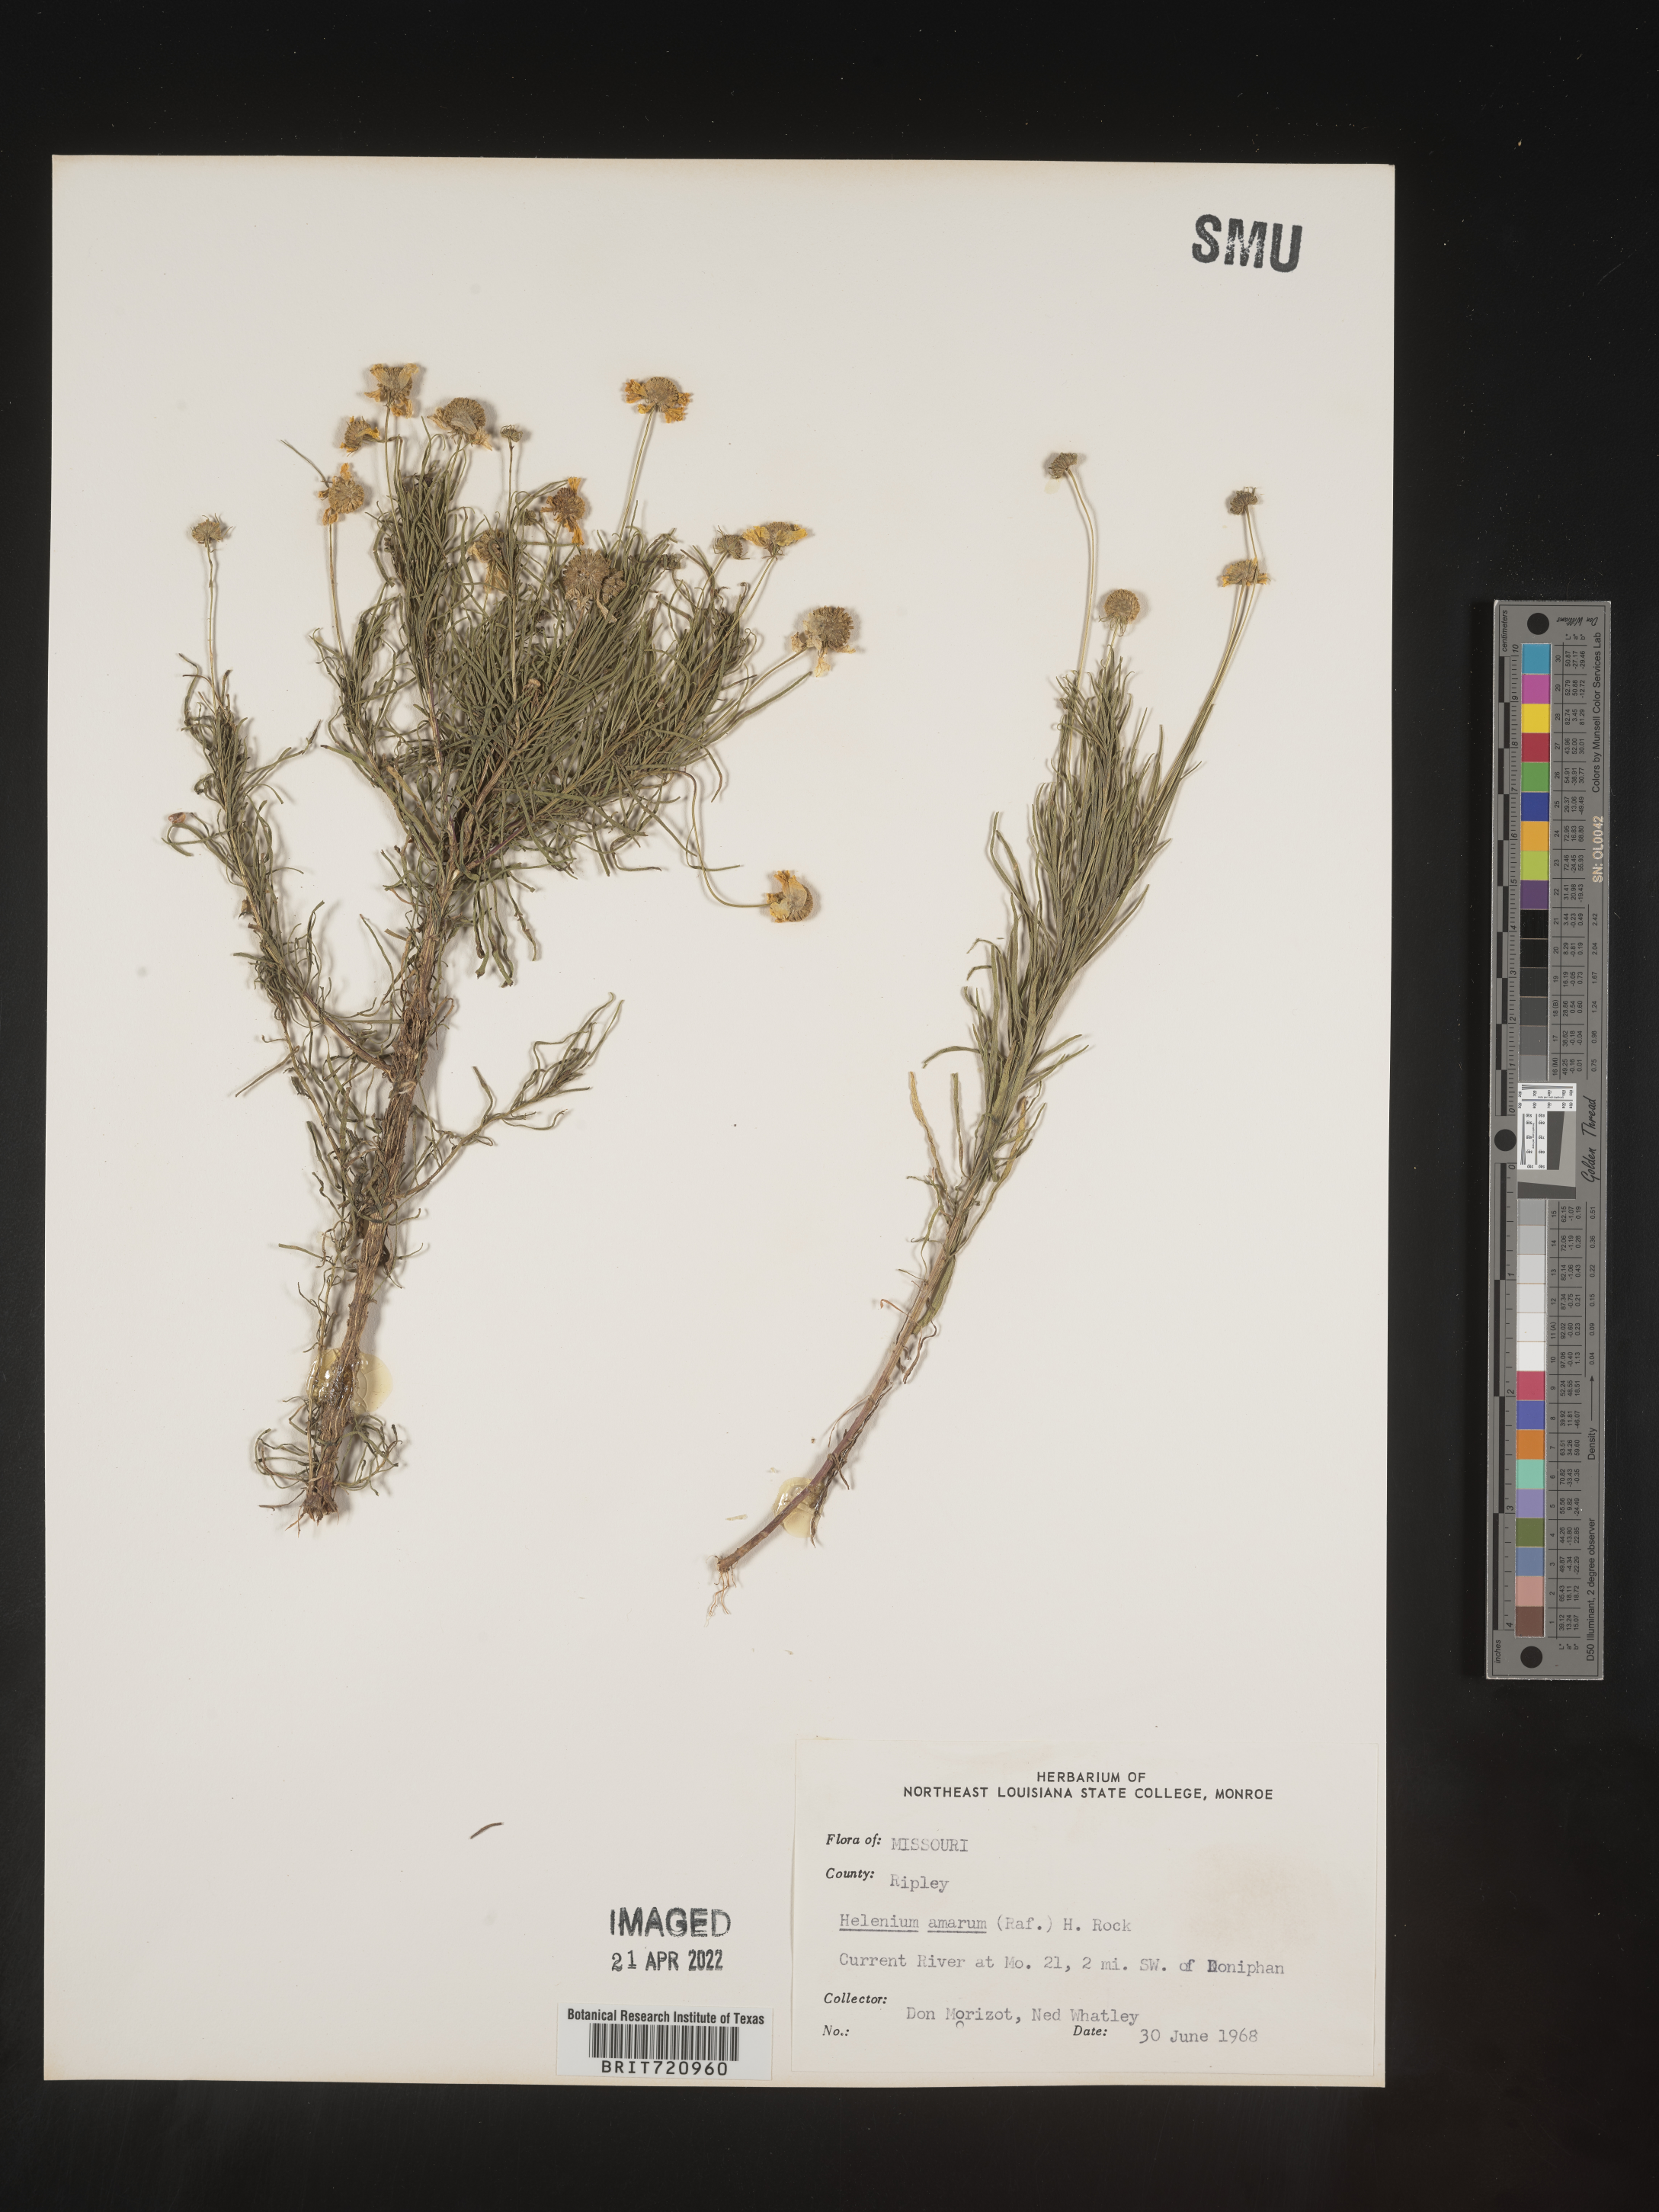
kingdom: Plantae
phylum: Tracheophyta
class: Magnoliopsida
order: Asterales
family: Asteraceae
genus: Helenium
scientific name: Helenium amarum
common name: Bitter sneezeweed
